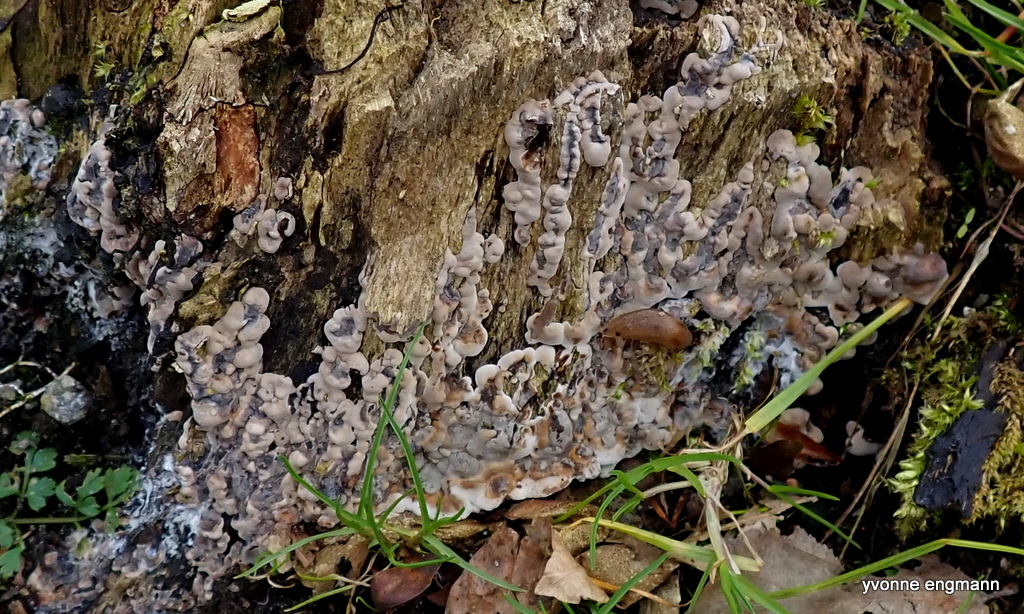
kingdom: Fungi
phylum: Basidiomycota
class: Agaricomycetes
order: Polyporales
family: Phanerochaetaceae
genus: Bjerkandera
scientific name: Bjerkandera adusta
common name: sveden sodporesvamp
